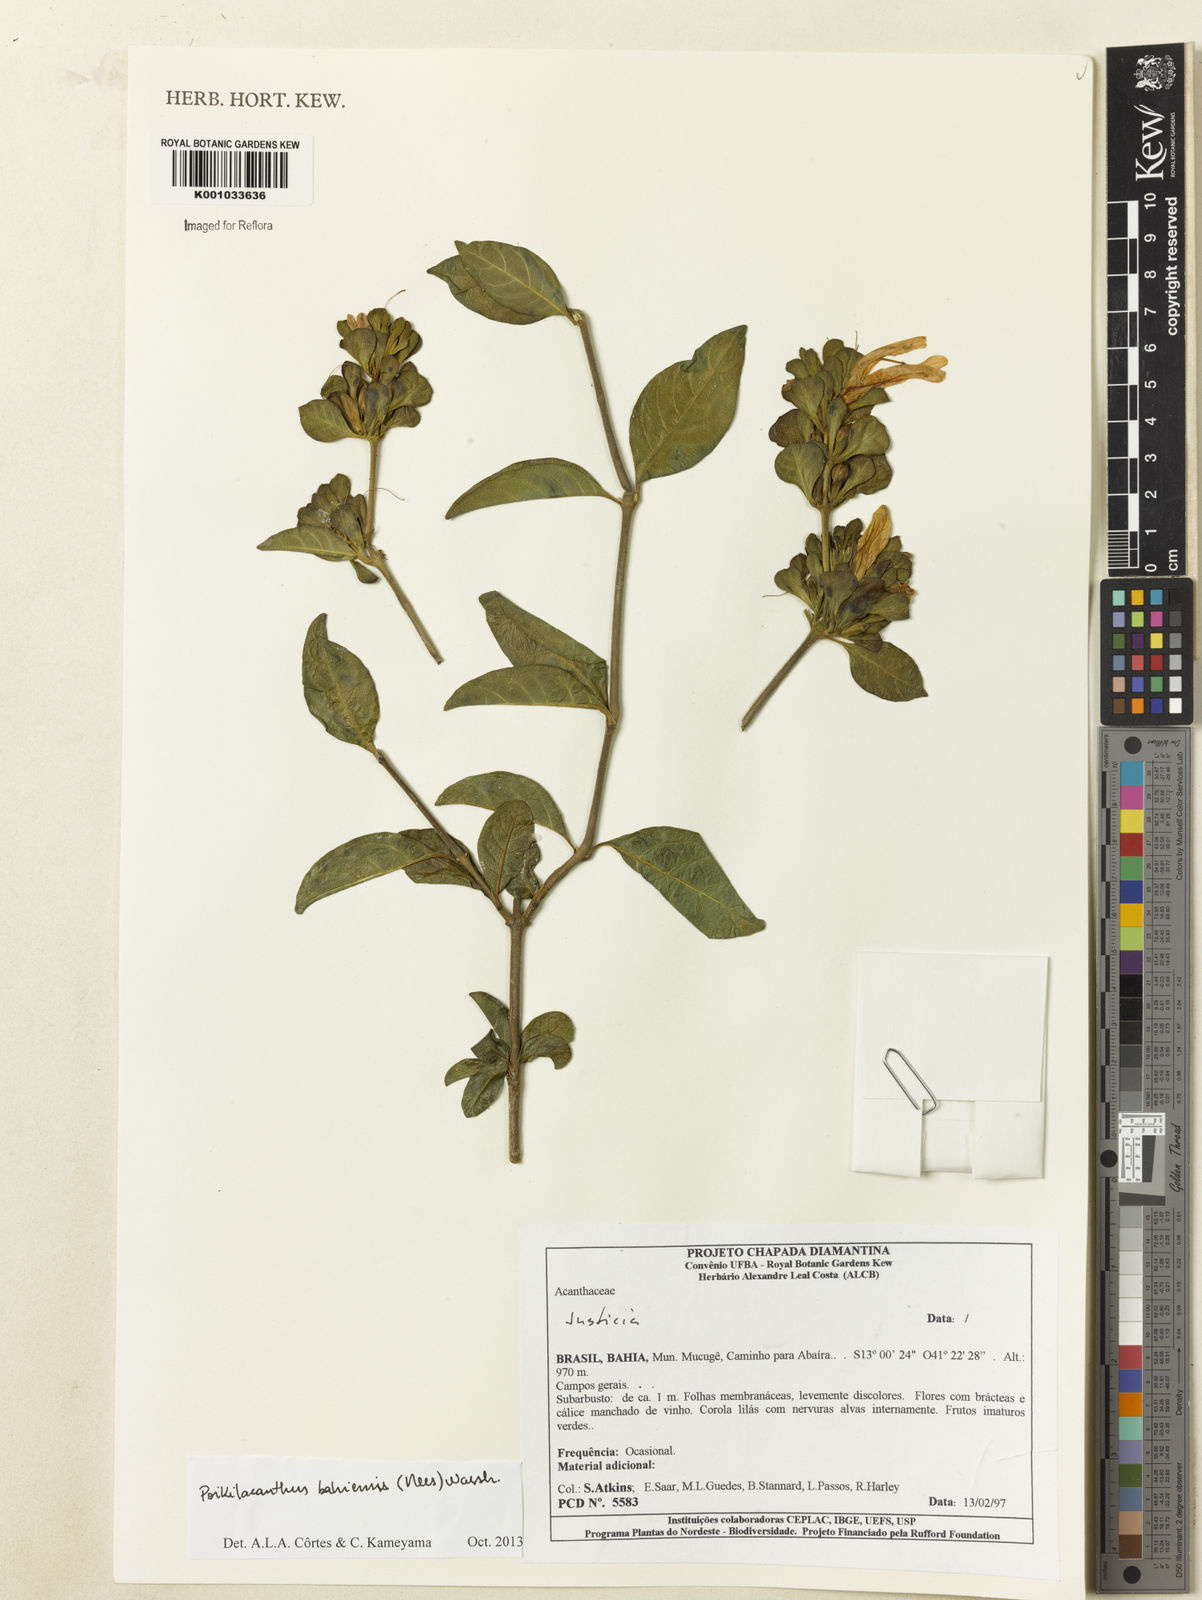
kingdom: Plantae
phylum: Tracheophyta
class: Magnoliopsida
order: Lamiales
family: Acanthaceae
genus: Poikilacanthus
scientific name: Poikilacanthus bahiensis
